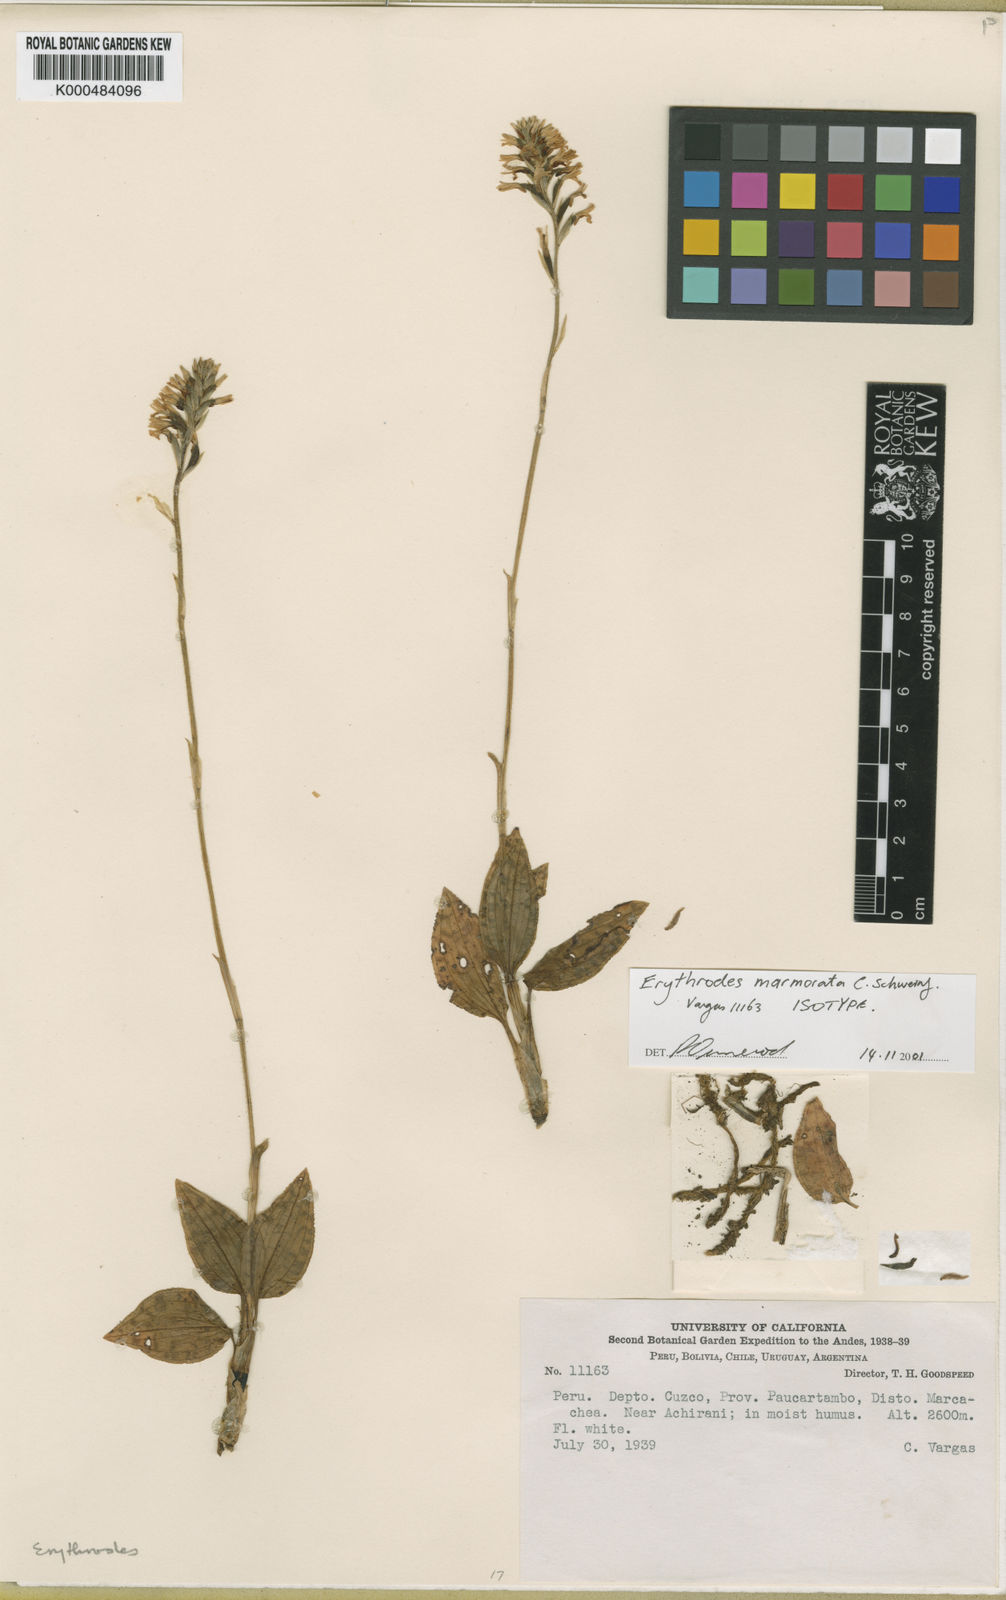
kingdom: Plantae
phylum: Tracheophyta
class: Liliopsida
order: Asparagales
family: Orchidaceae
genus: Microchilus
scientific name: Microchilus anchorifer
